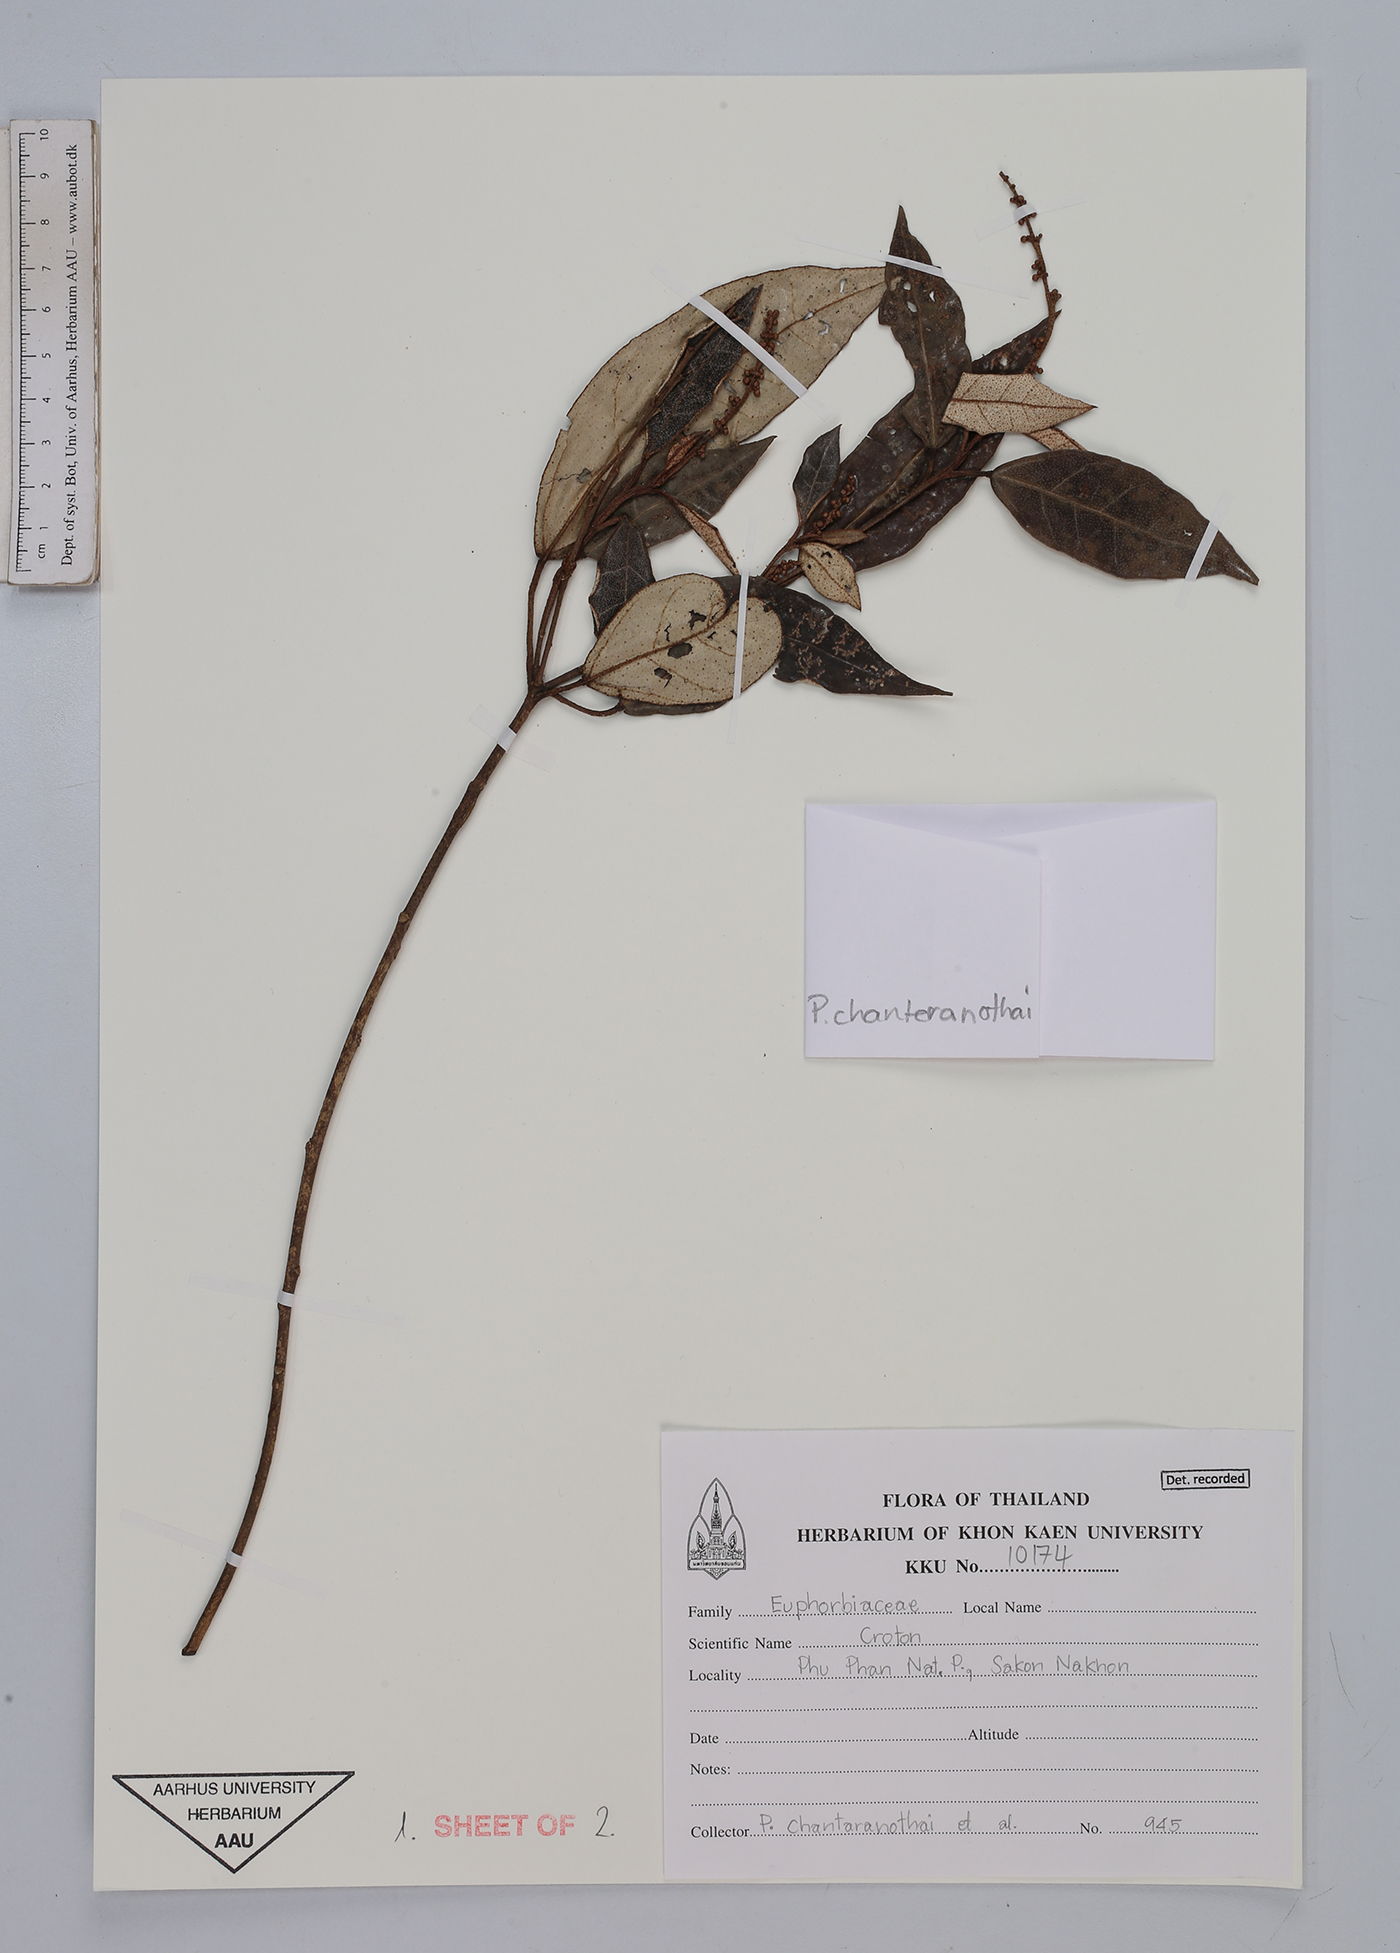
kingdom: Plantae
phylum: Tracheophyta
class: Magnoliopsida
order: Malpighiales
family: Euphorbiaceae
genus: Croton
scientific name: Croton
